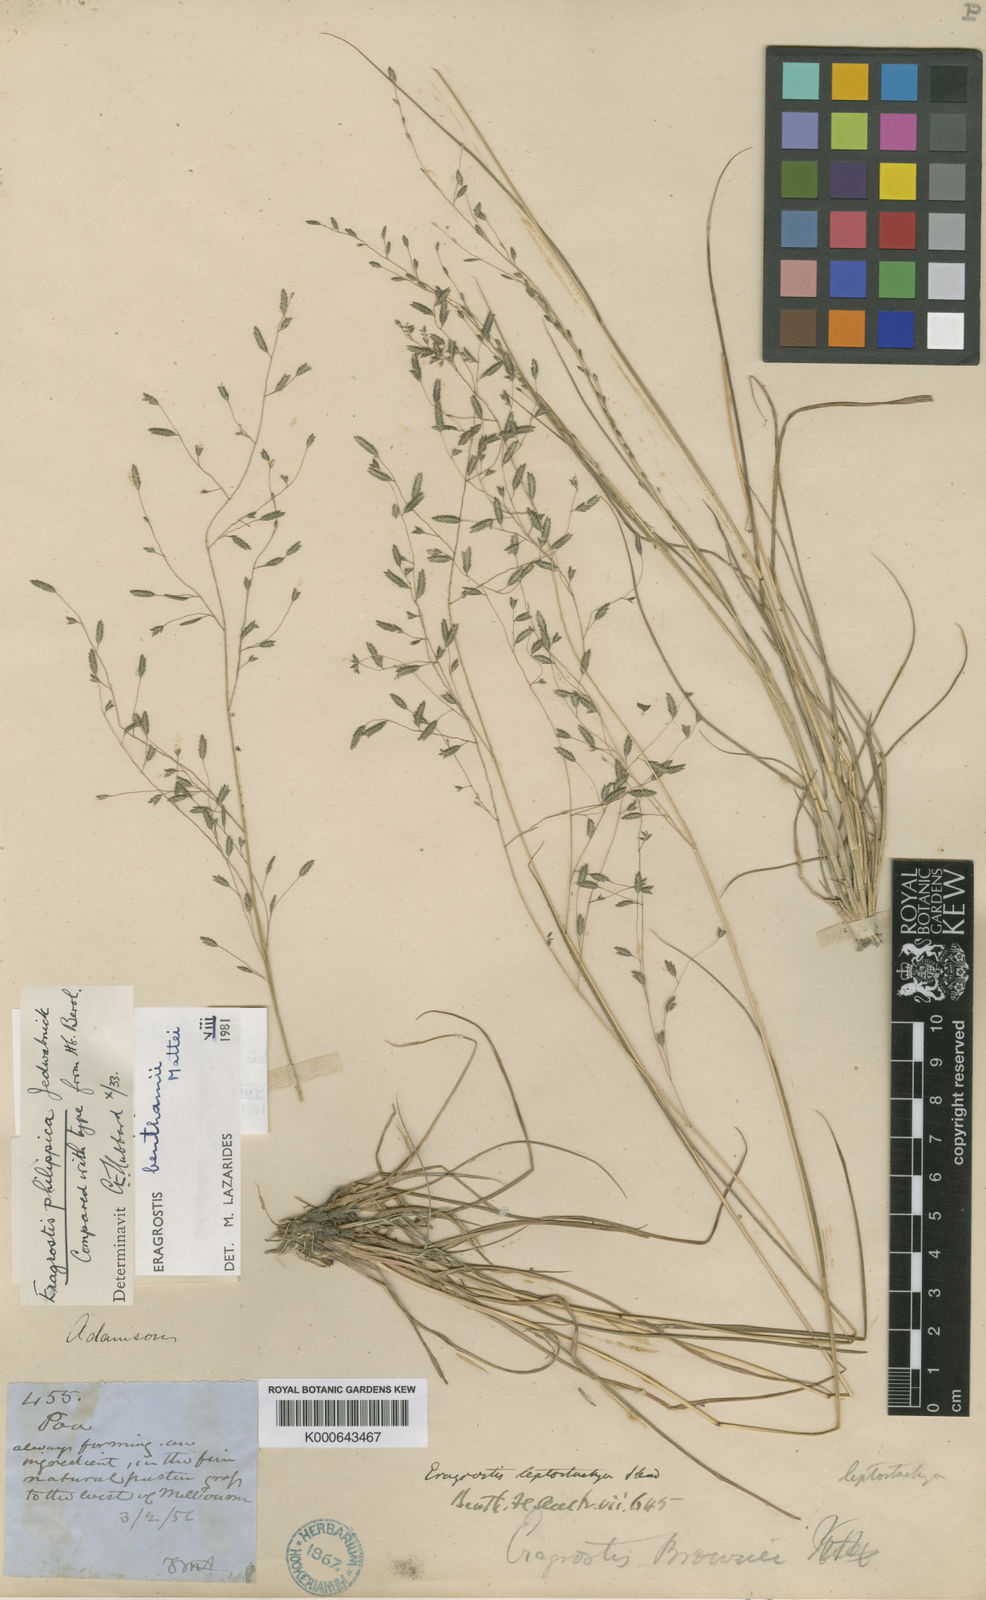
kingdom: Plantae
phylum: Tracheophyta
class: Liliopsida
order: Poales
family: Poaceae
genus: Eragrostis
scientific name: Eragrostis brownii
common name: Lovegrass
